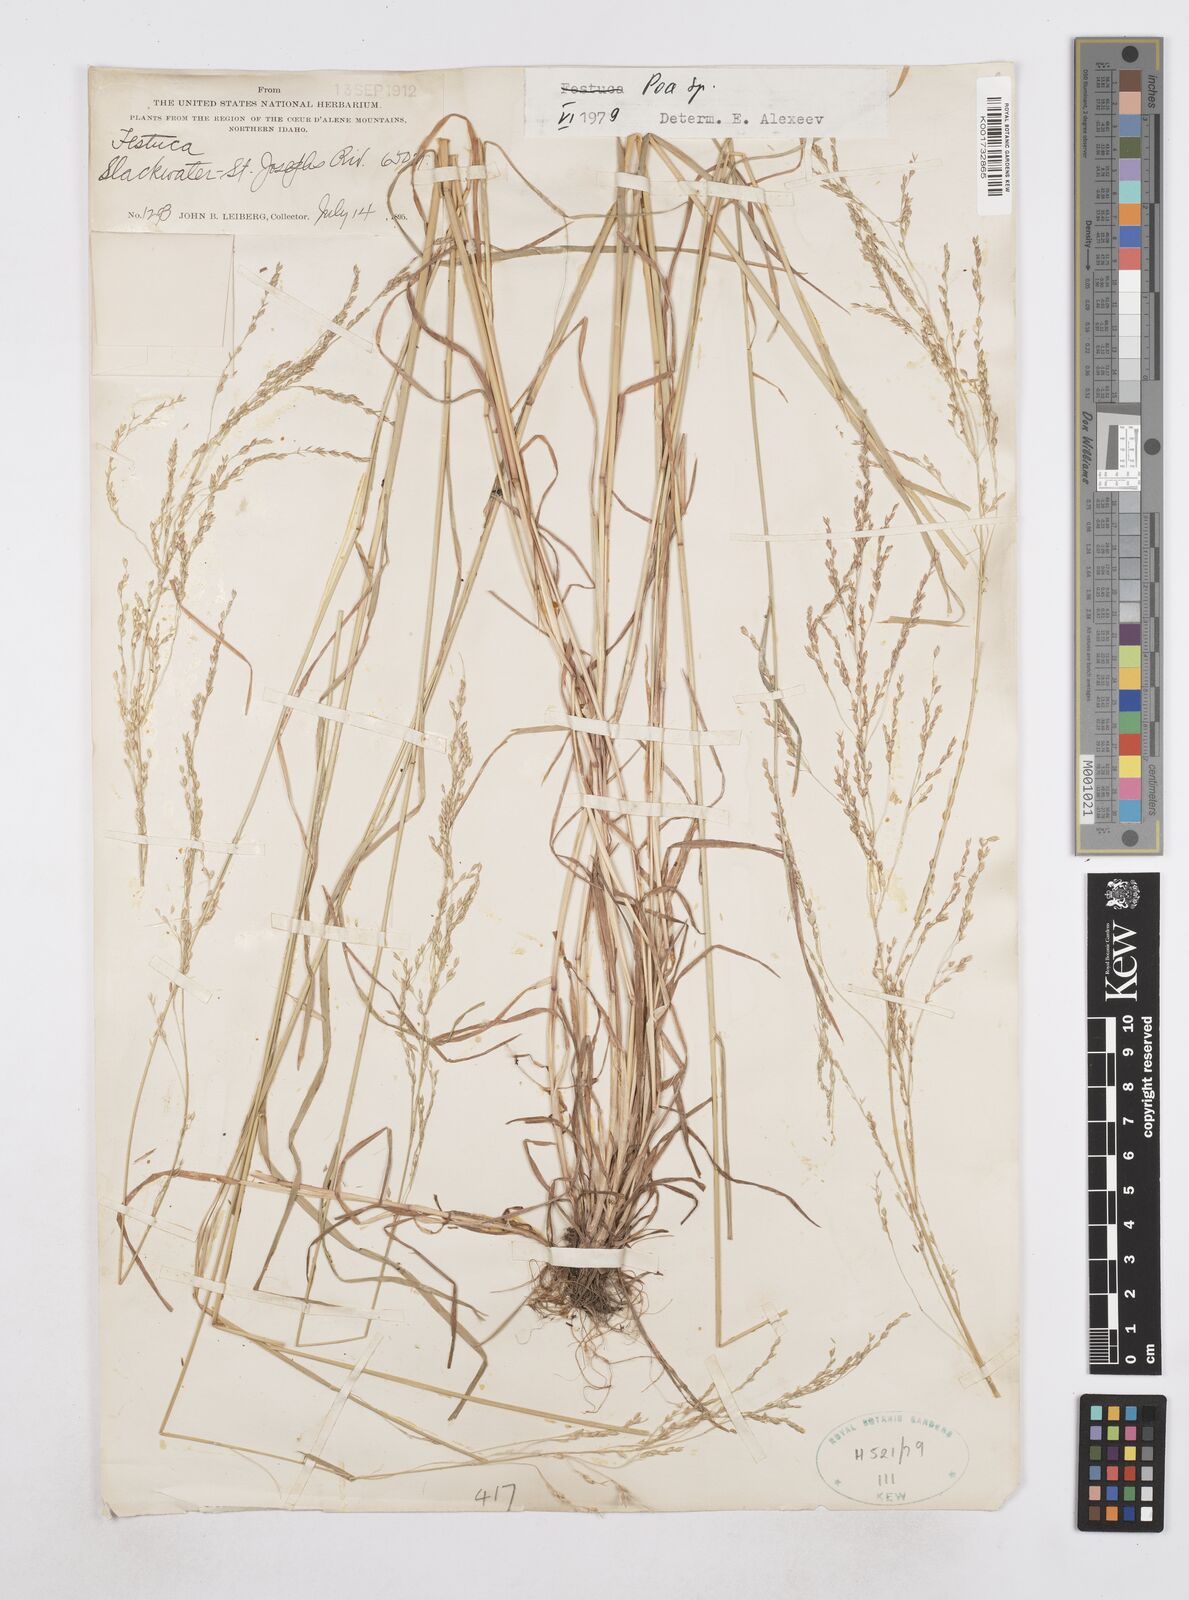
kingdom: Plantae
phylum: Tracheophyta
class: Liliopsida
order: Poales
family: Poaceae
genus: Poa
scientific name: Poa
